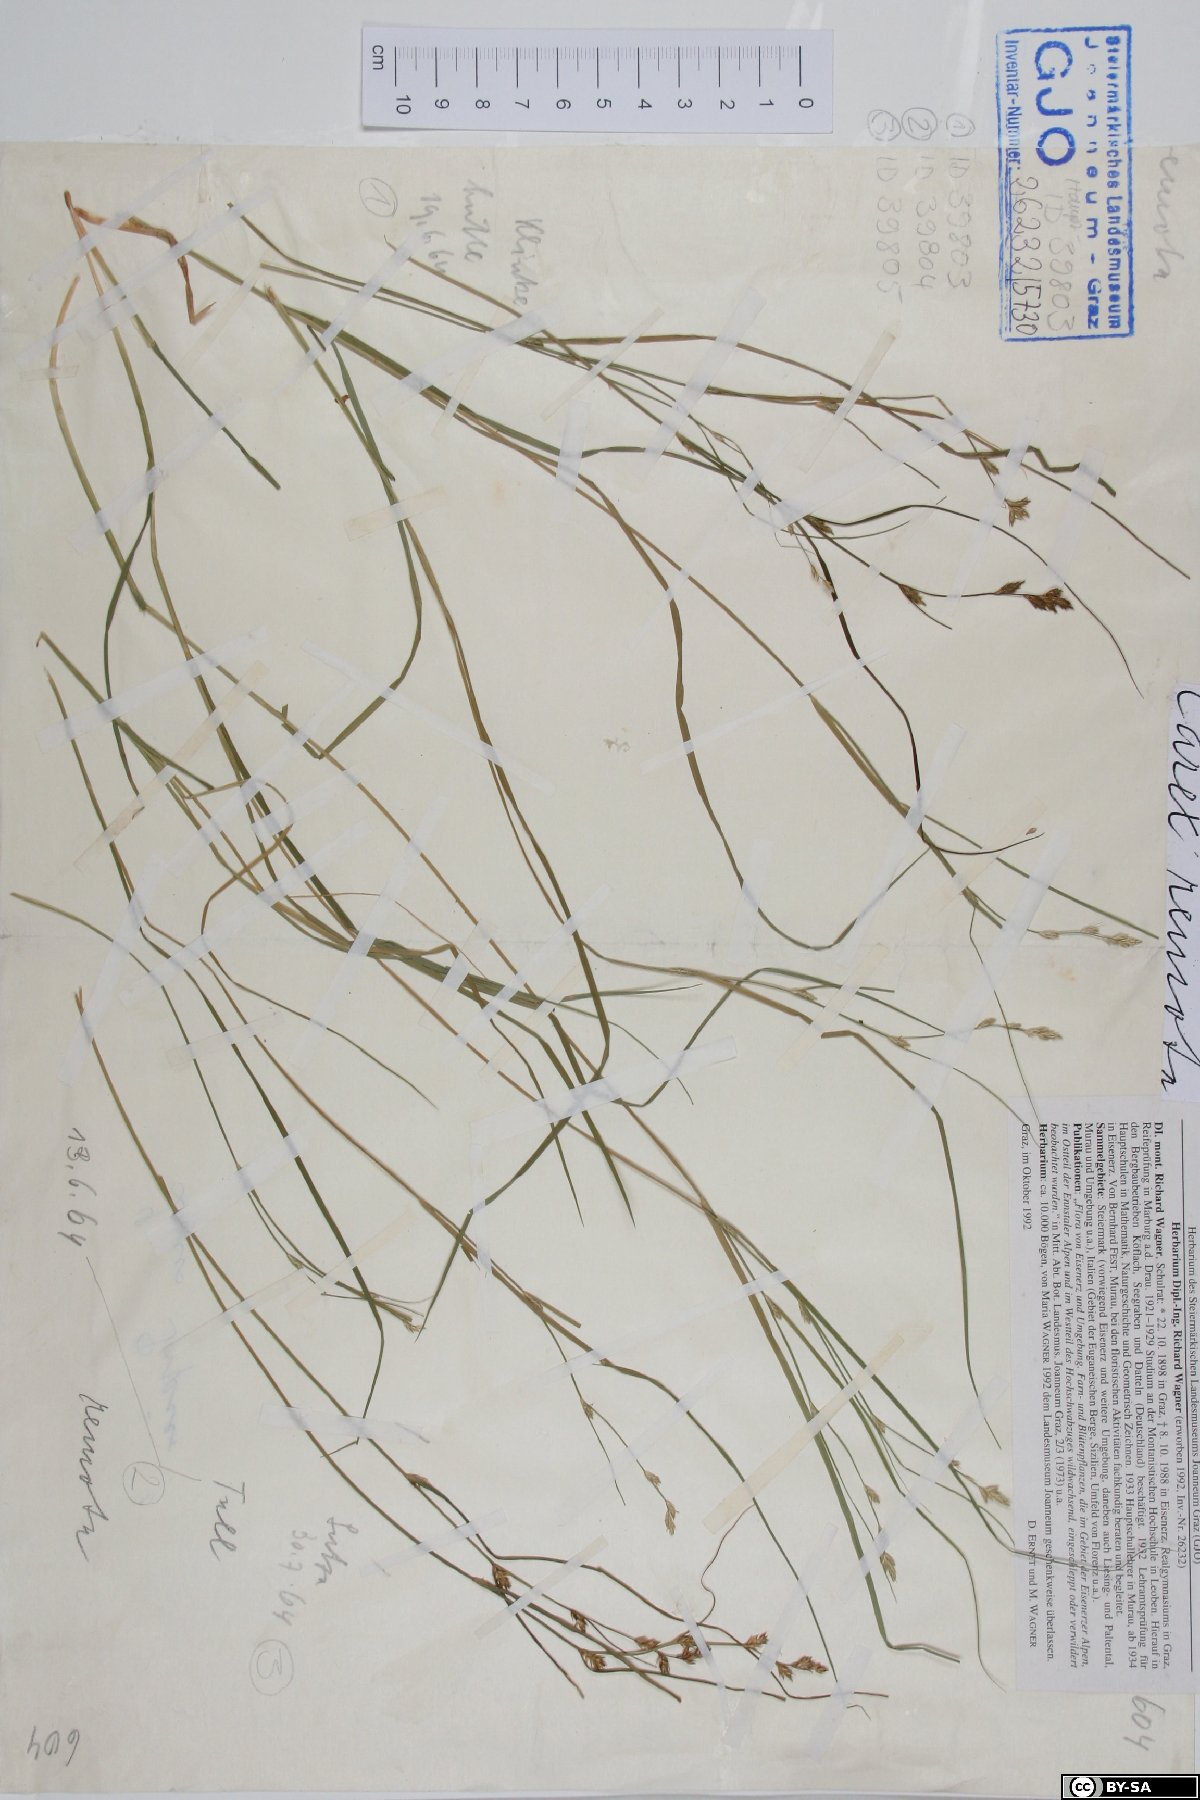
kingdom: Plantae
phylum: Tracheophyta
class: Liliopsida
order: Poales
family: Cyperaceae
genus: Carex
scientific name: Carex remota
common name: Remote sedge
